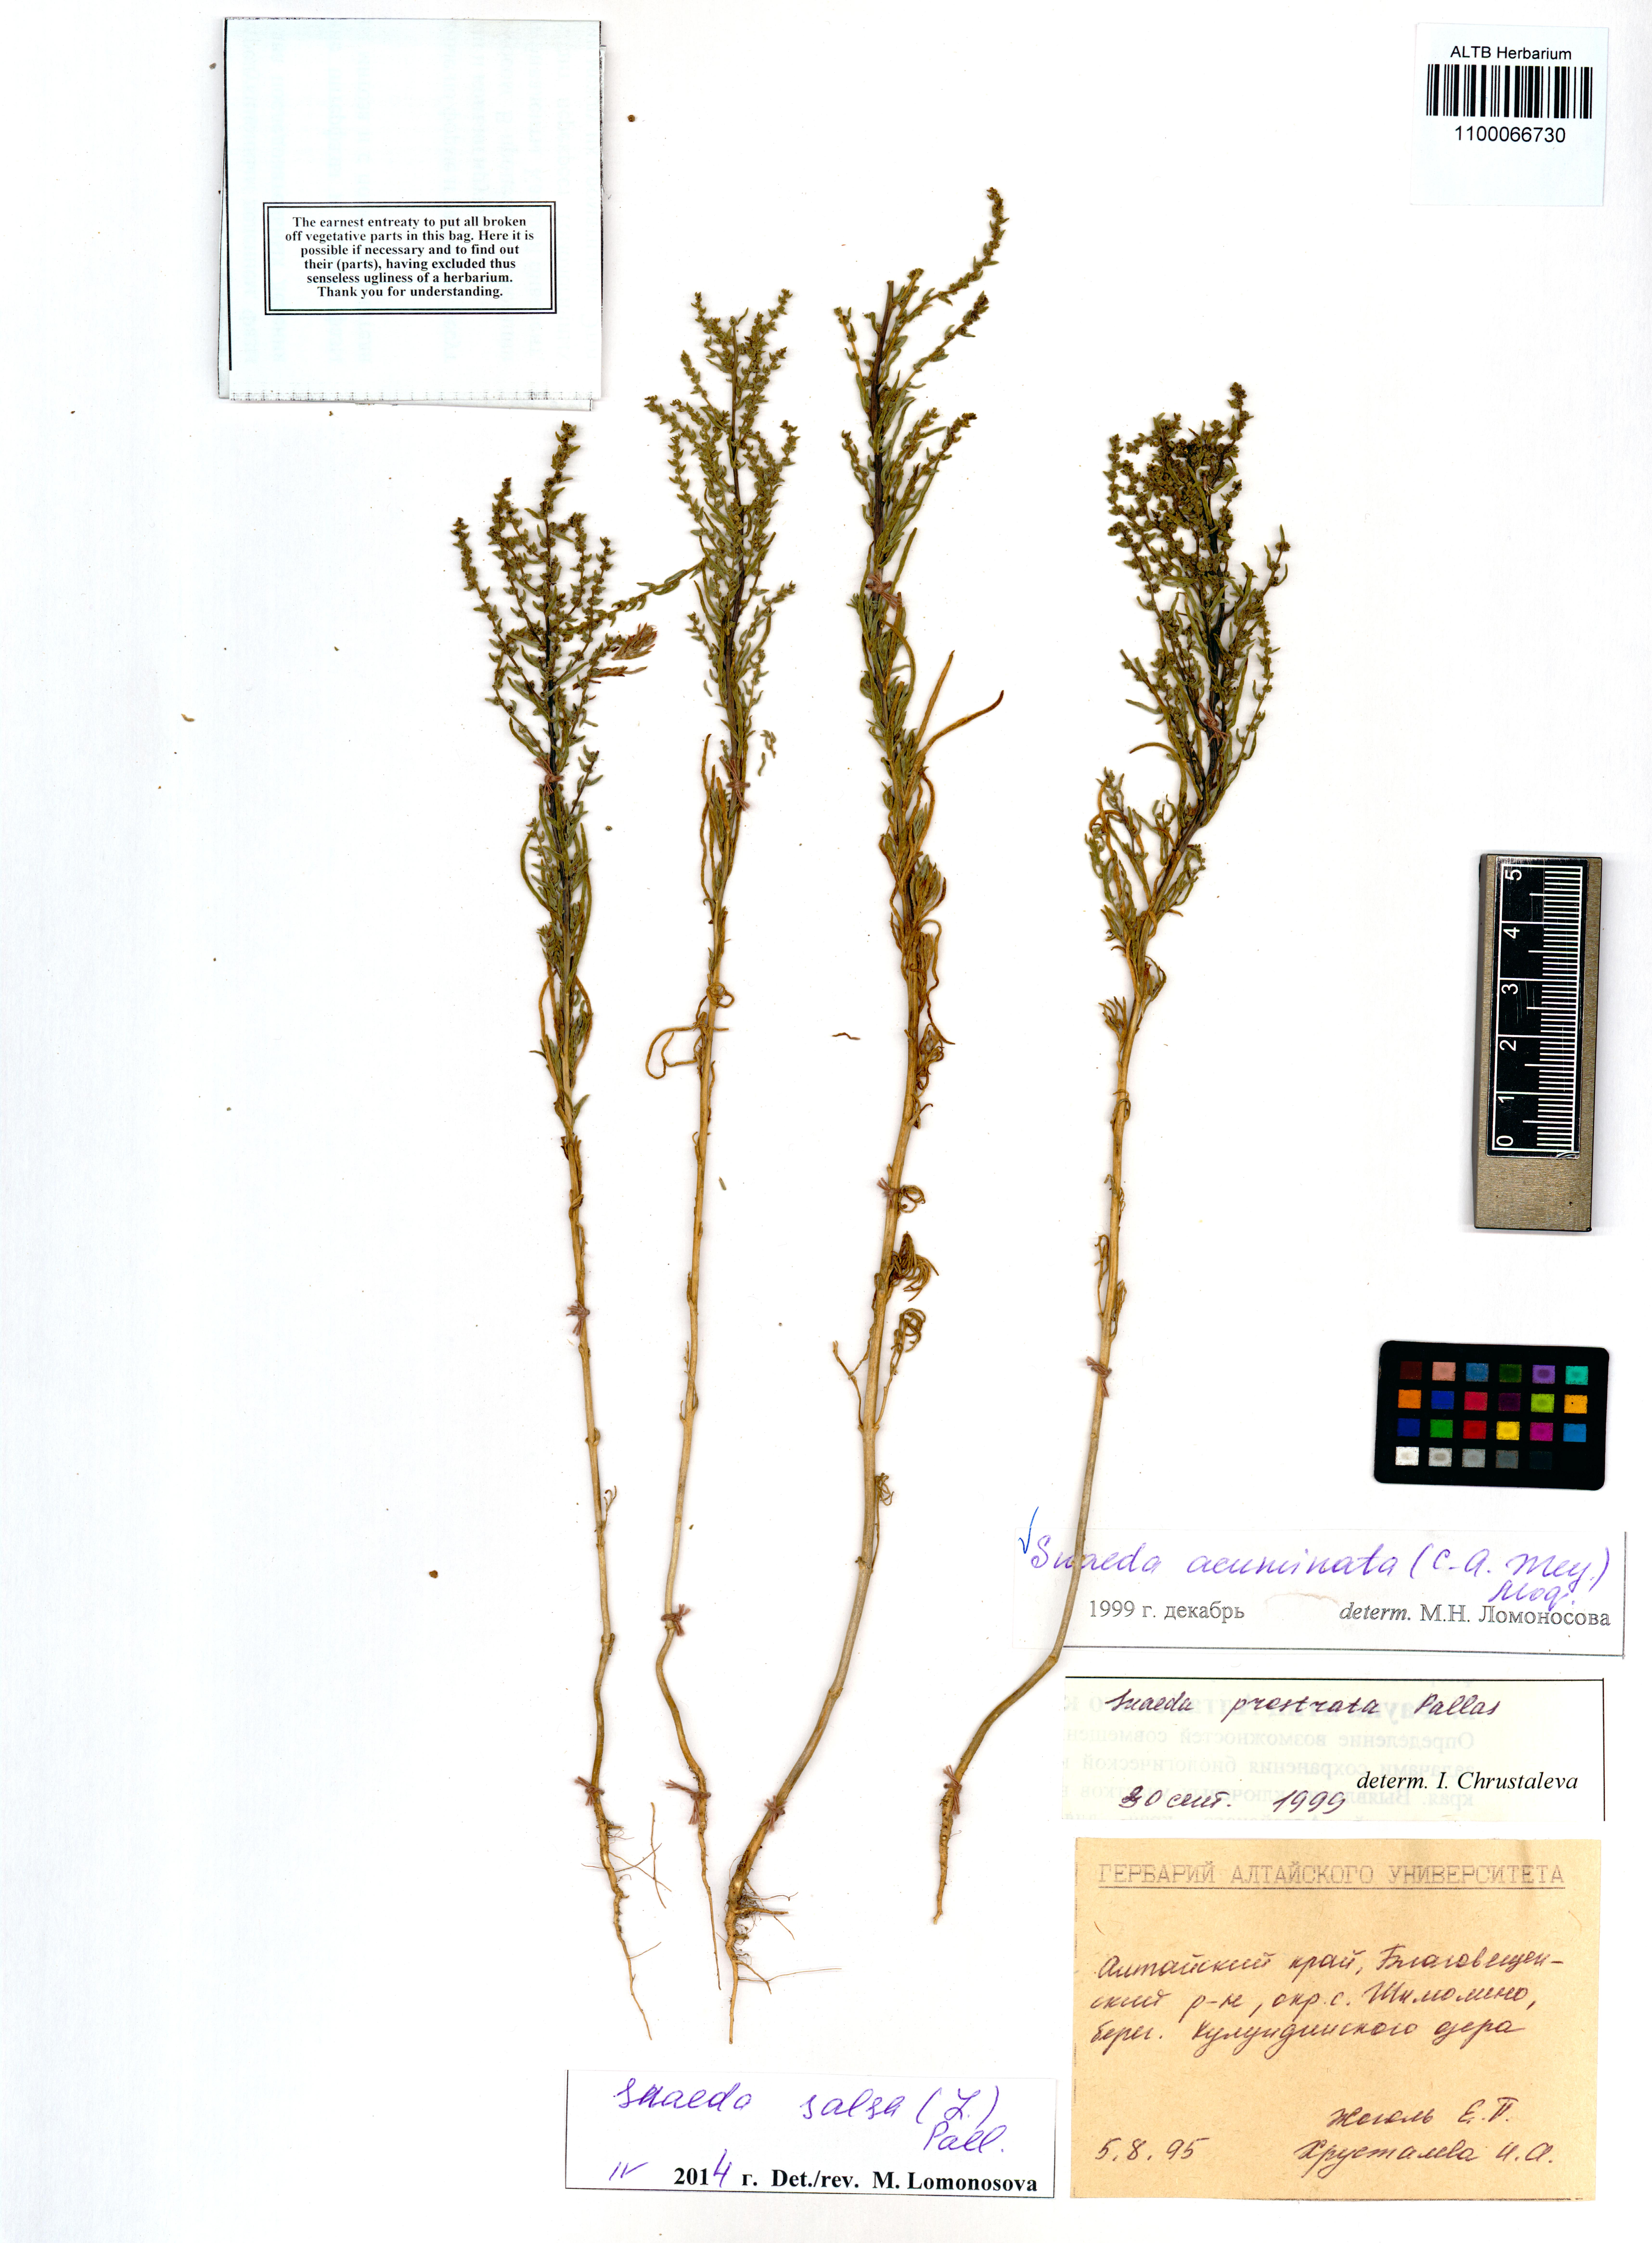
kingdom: Plantae
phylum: Tracheophyta
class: Magnoliopsida
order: Caryophyllales
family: Amaranthaceae
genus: Suaeda
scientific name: Suaeda acuminata
